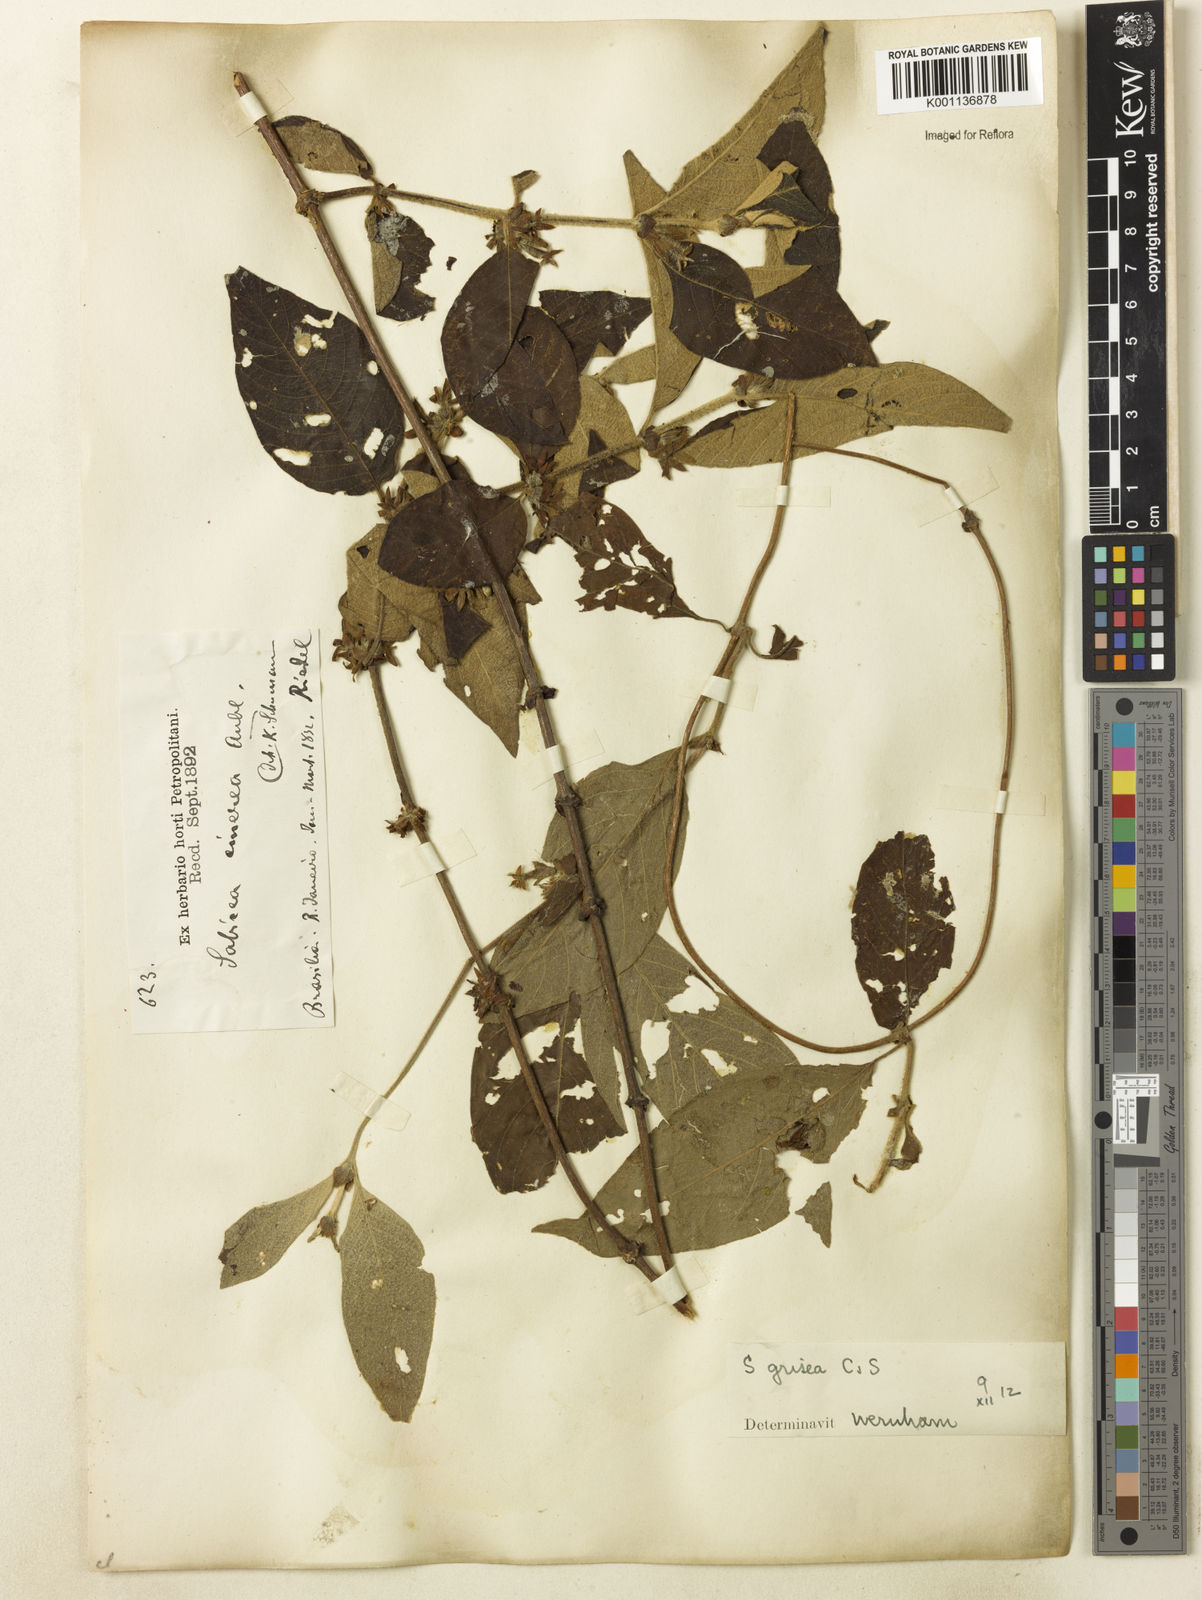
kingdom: Plantae
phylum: Tracheophyta
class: Magnoliopsida
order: Gentianales
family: Rubiaceae
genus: Sabicea
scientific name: Sabicea grisea
